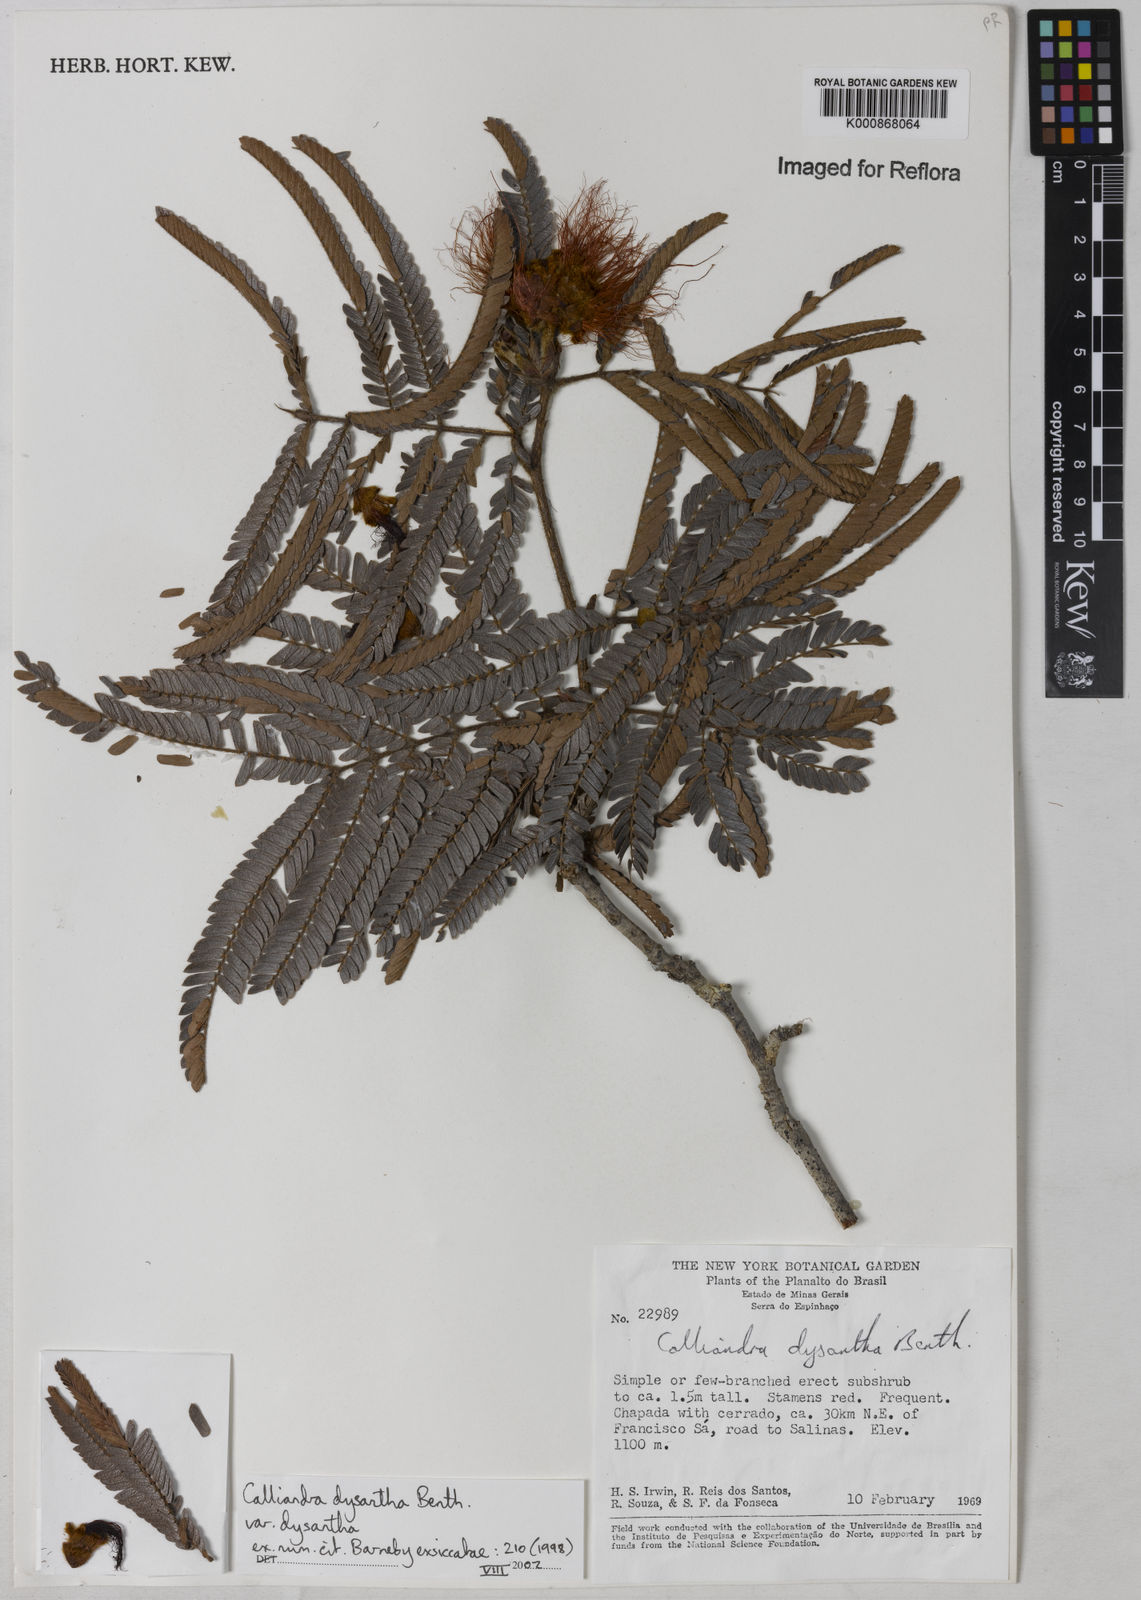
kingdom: Plantae
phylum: Tracheophyta
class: Magnoliopsida
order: Fabales
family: Fabaceae
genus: Calliandra
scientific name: Calliandra dysantha
